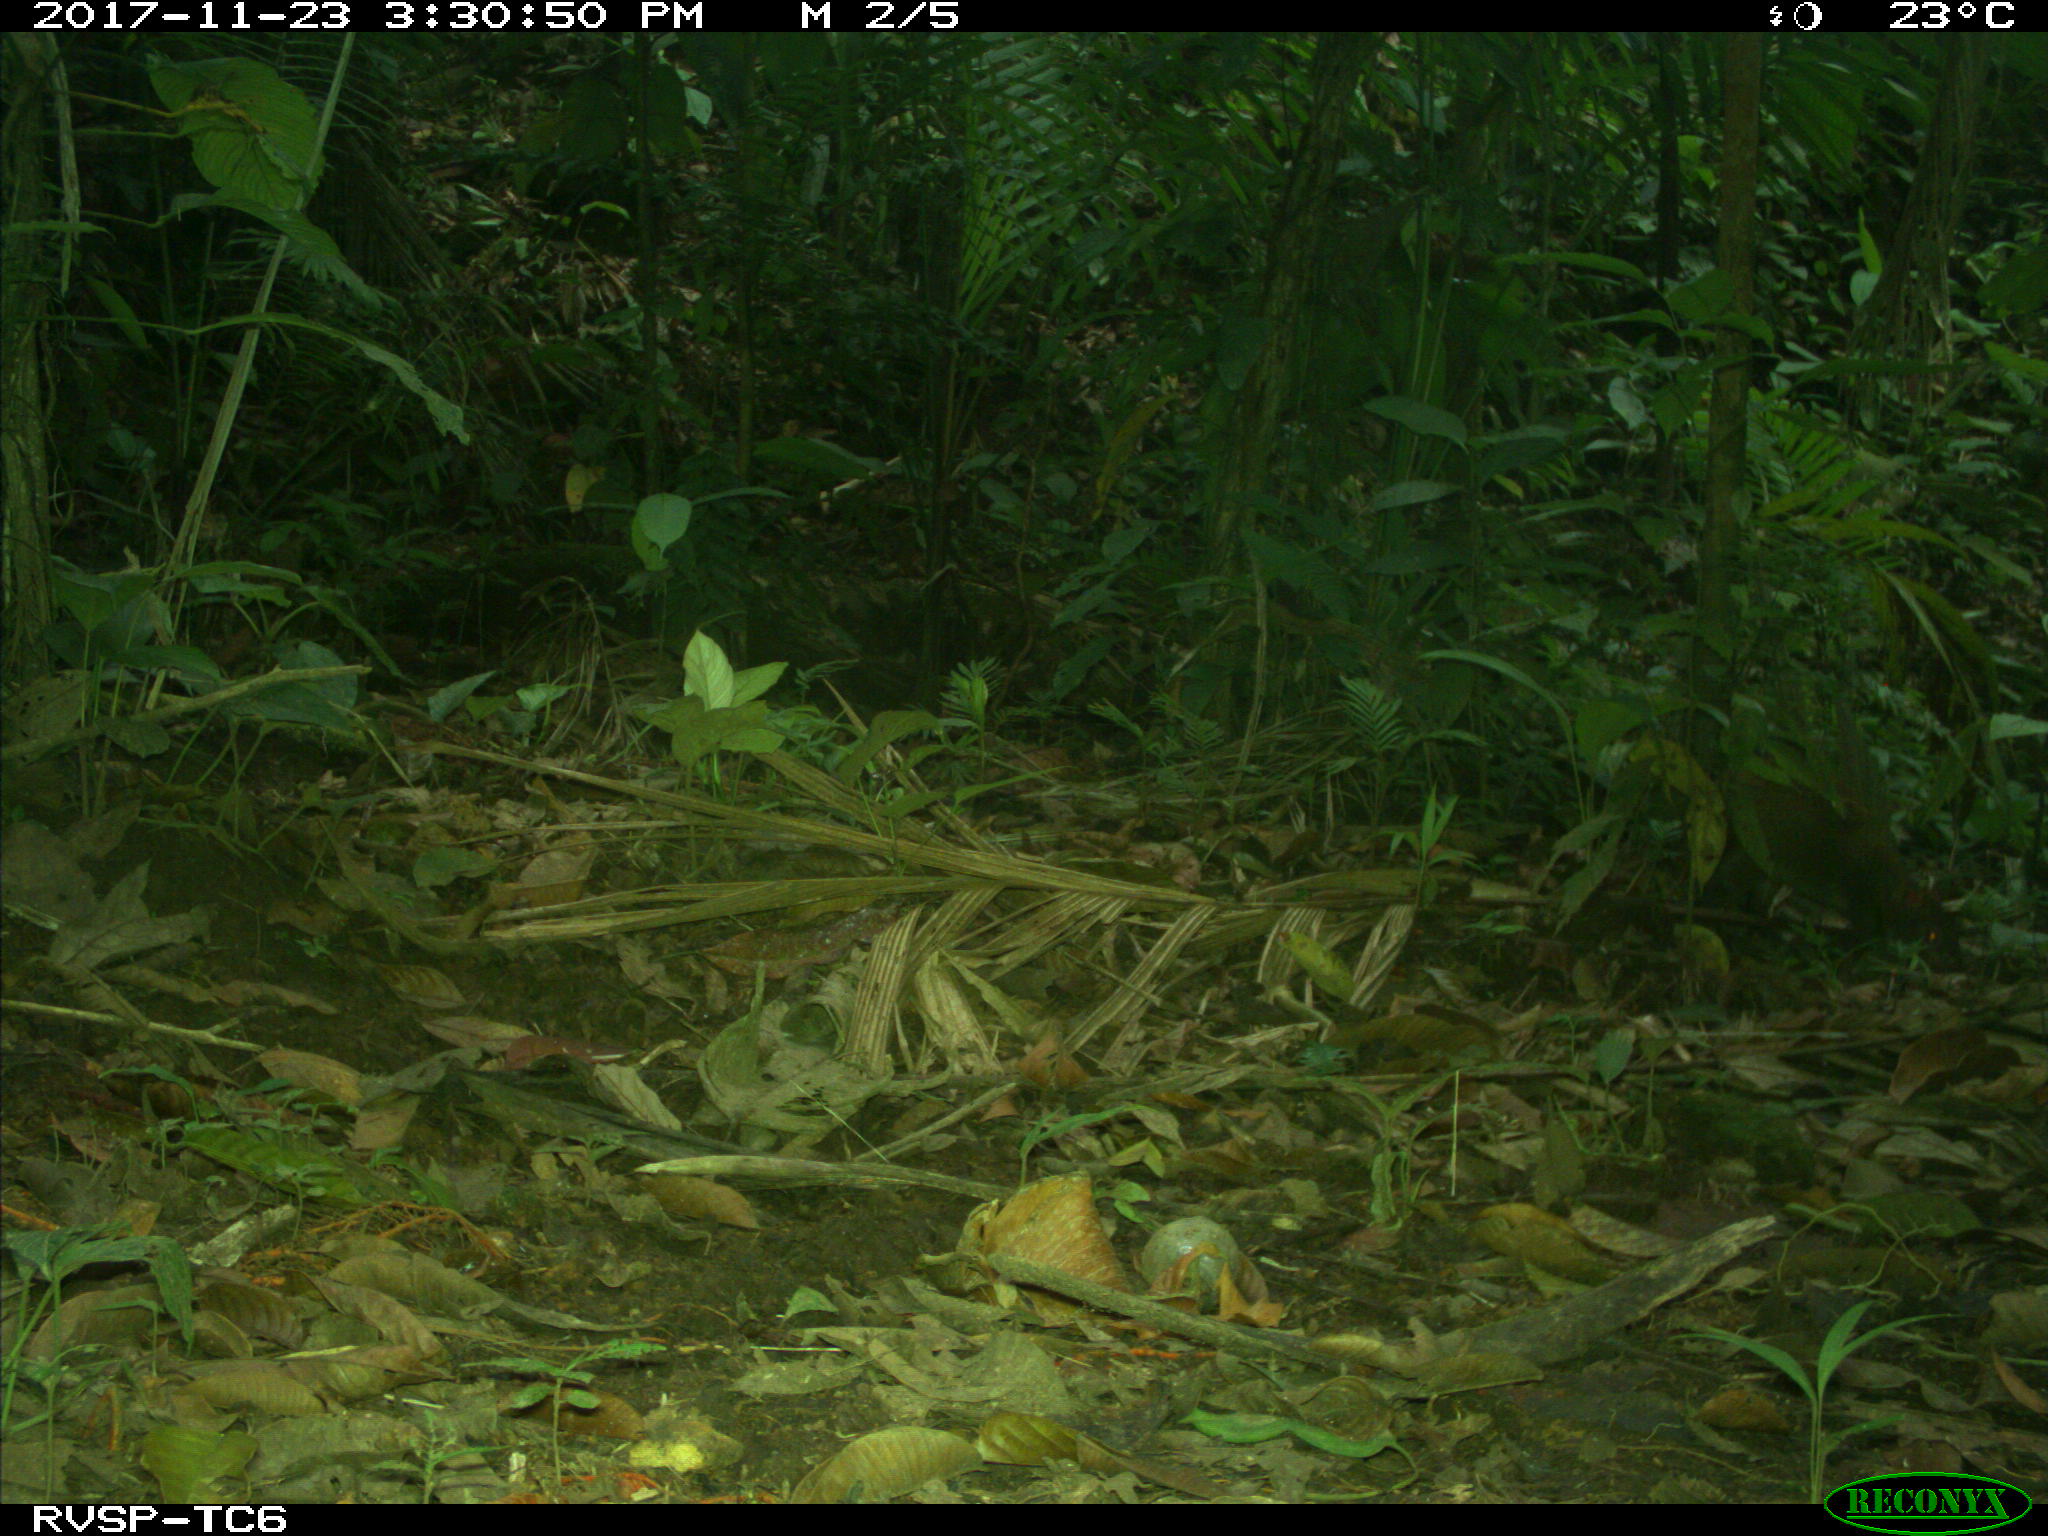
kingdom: Animalia
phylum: Chordata
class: Mammalia
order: Rodentia
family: Dasyproctidae
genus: Dasyprocta
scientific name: Dasyprocta punctata
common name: Central american agouti
